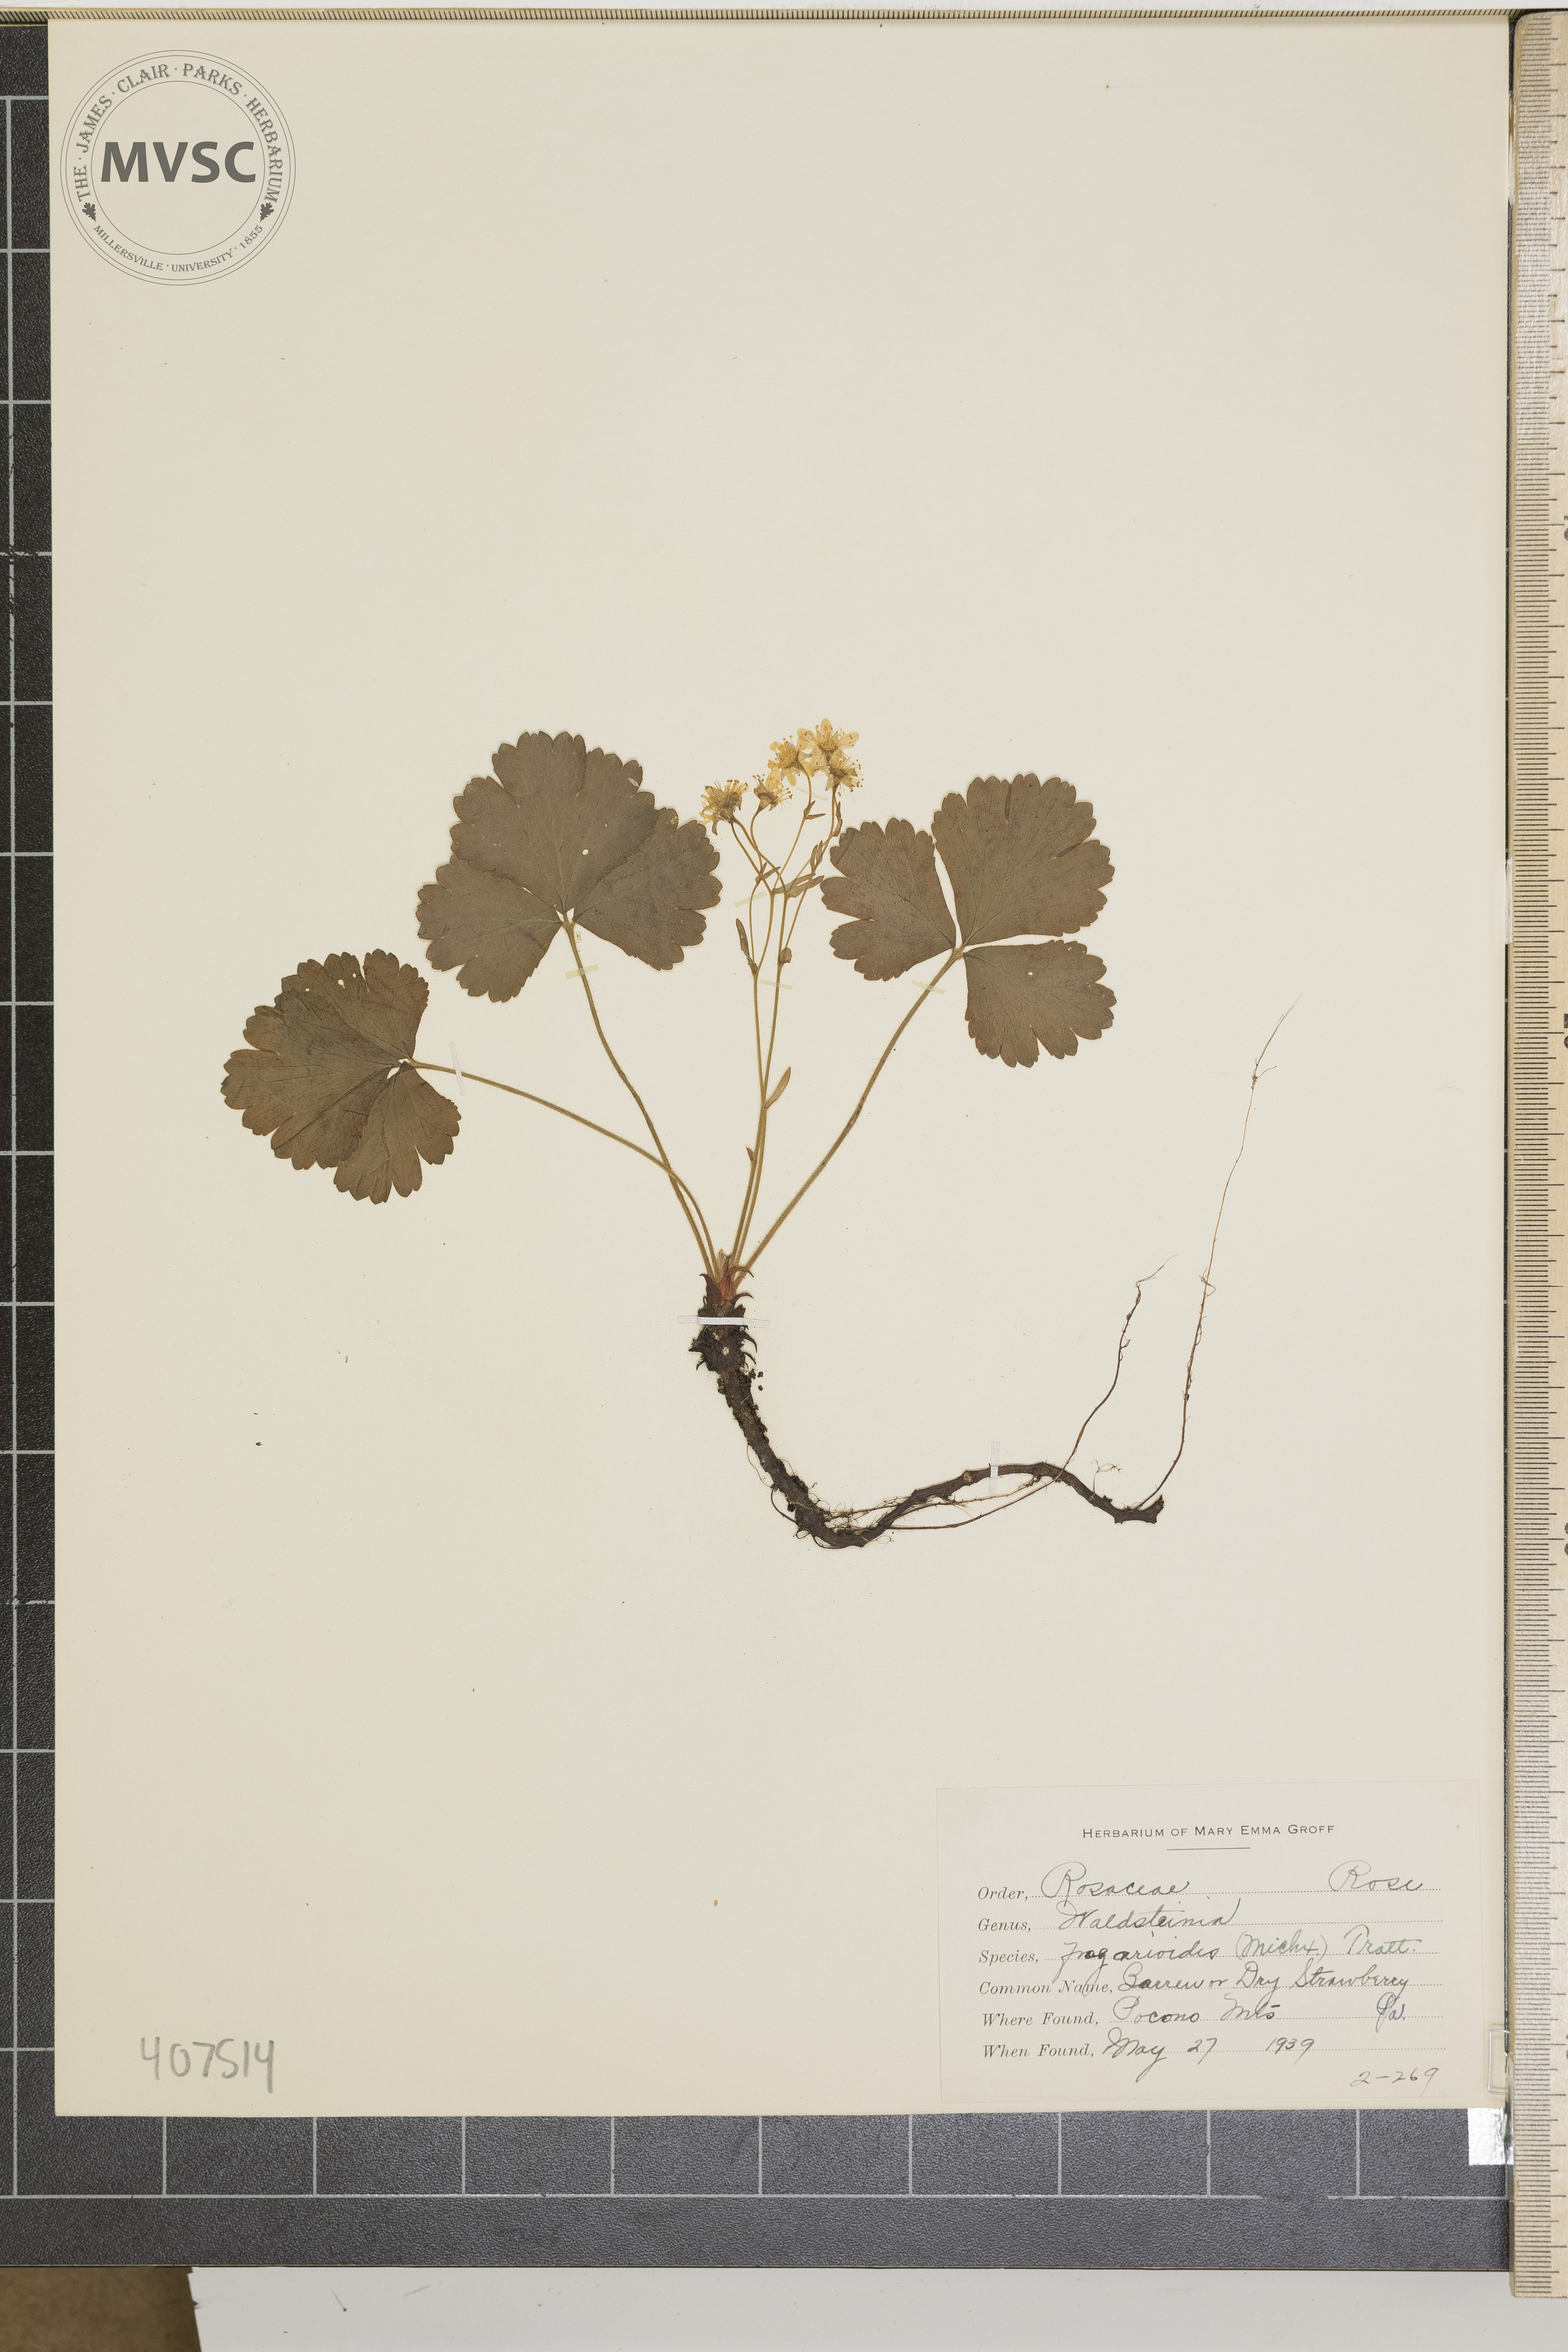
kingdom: Plantae
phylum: Tracheophyta
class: Magnoliopsida
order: Rosales
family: Rosaceae
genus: Geum
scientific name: Geum fragarioides
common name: Appalachian barren strawberry
